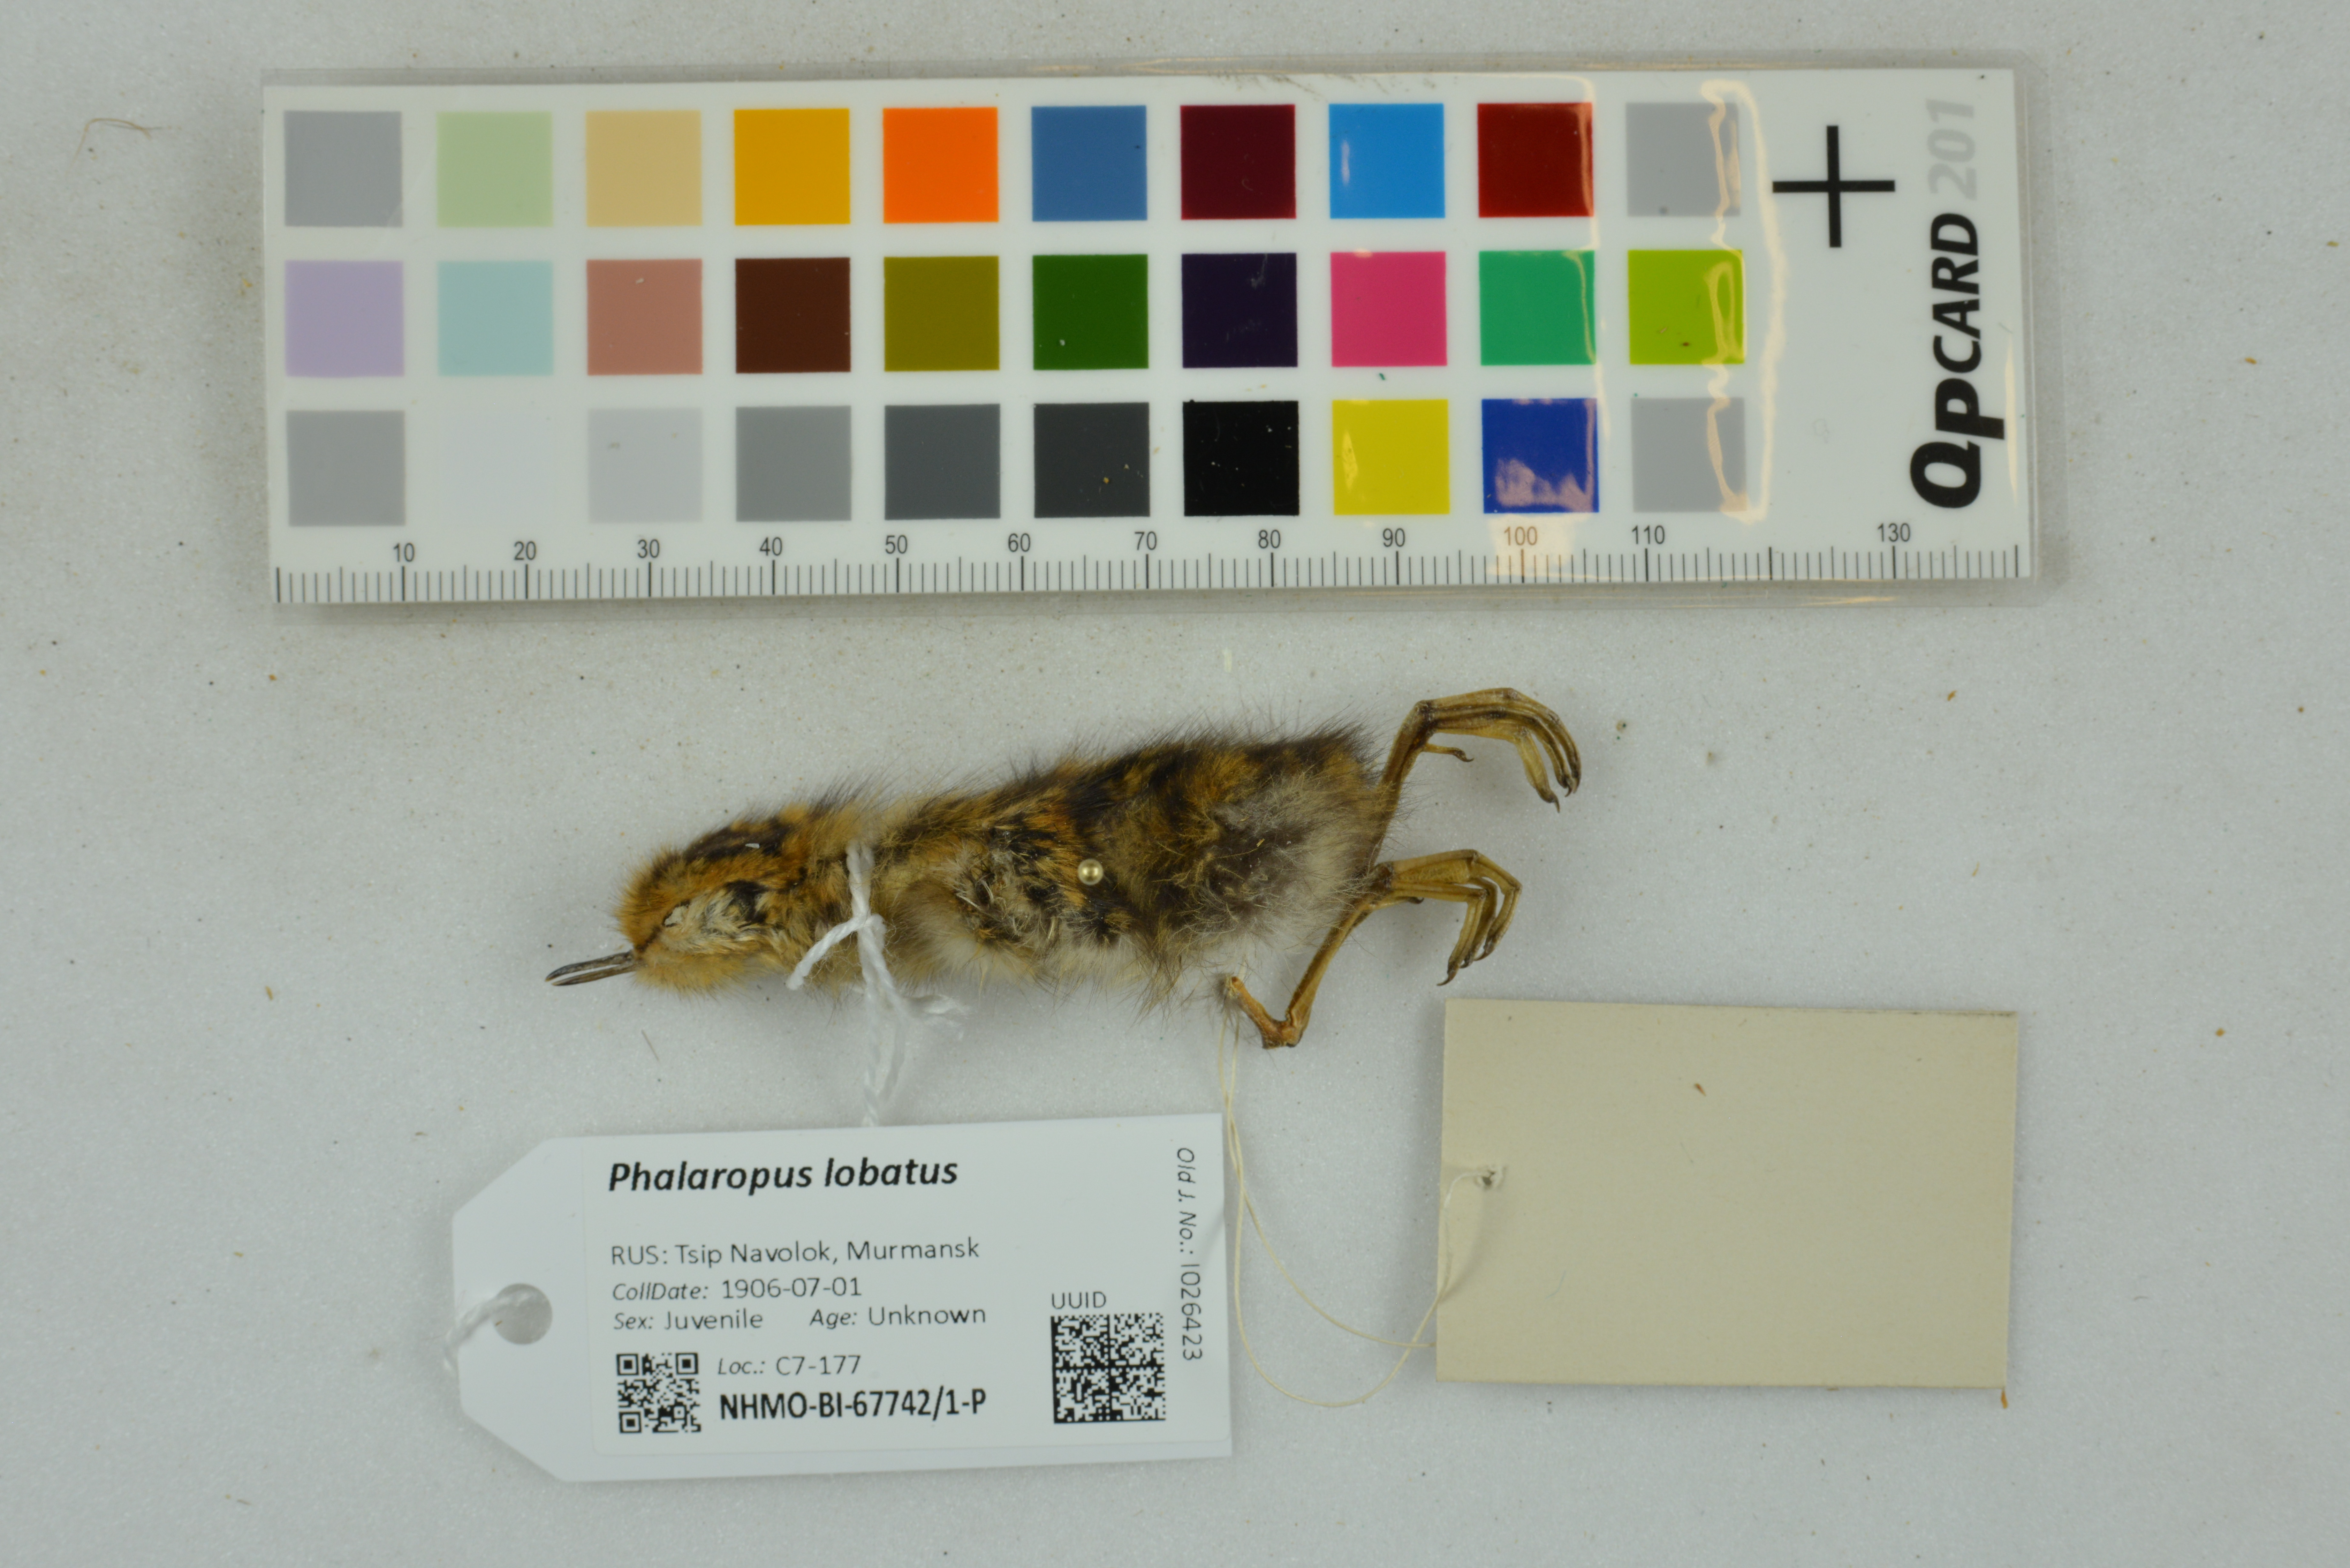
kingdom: Animalia
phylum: Chordata
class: Aves
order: Charadriiformes
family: Scolopacidae
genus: Phalaropus
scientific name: Phalaropus lobatus
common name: Red-necked phalarope
